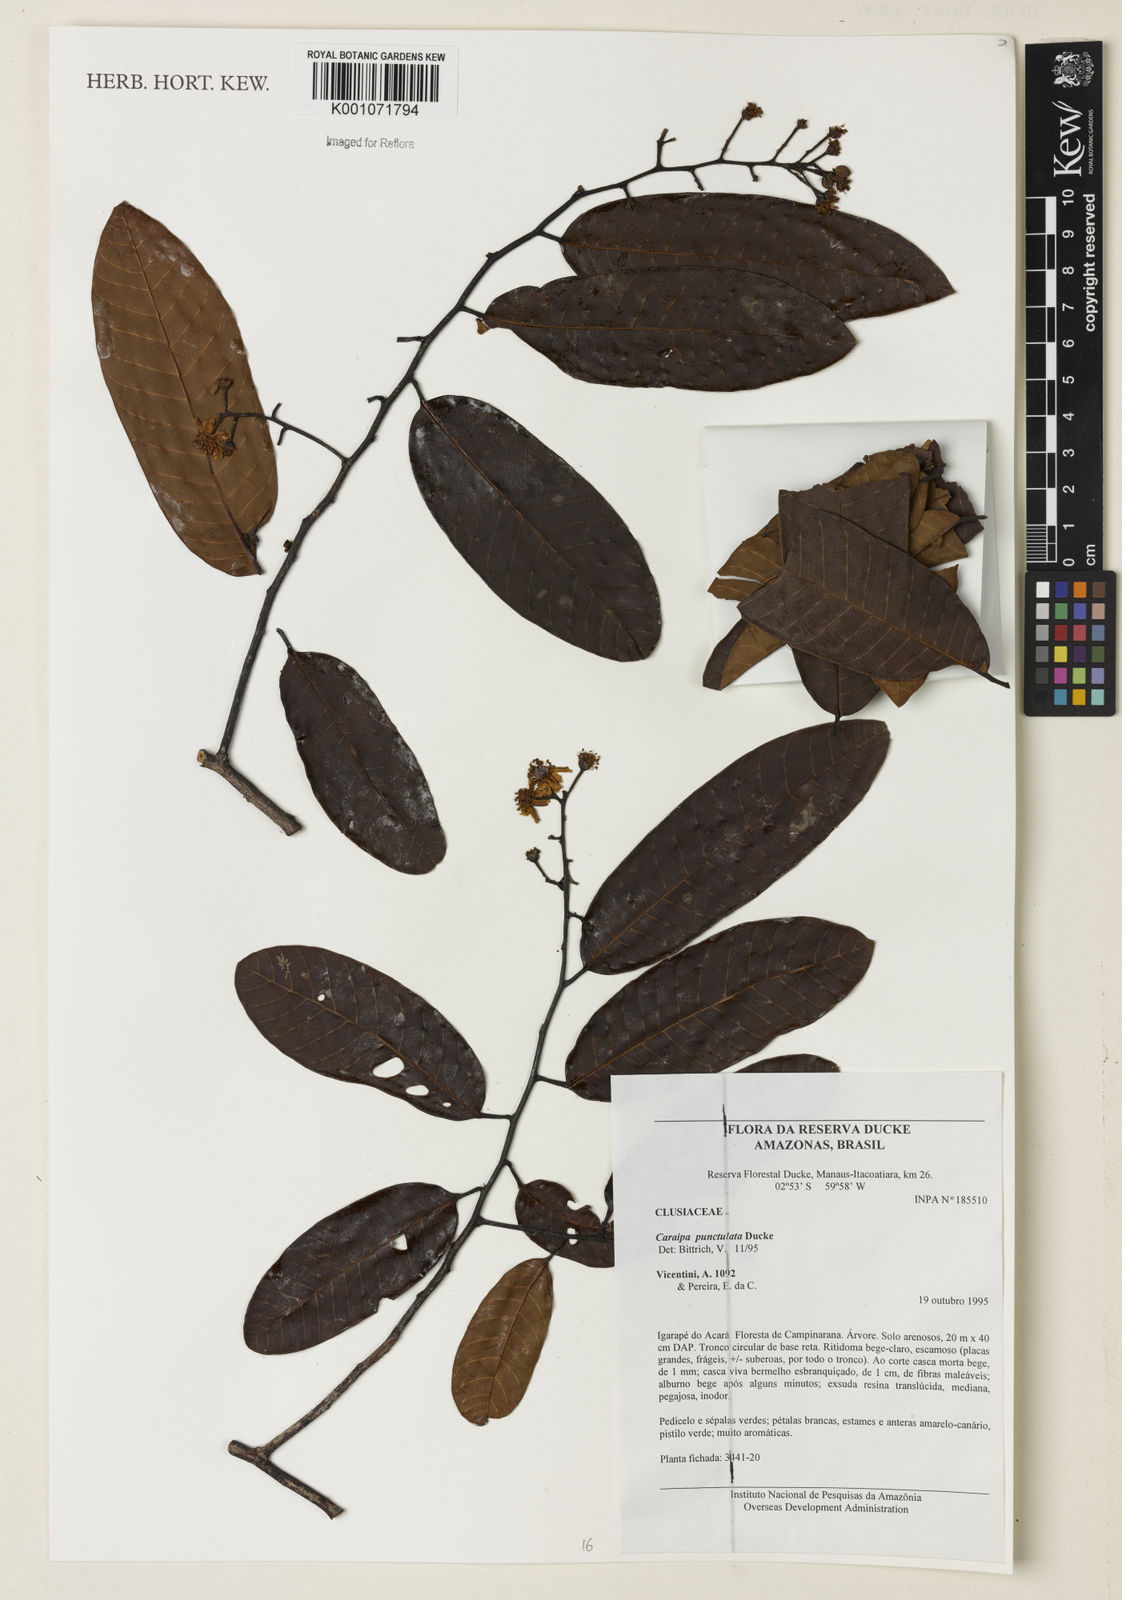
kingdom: Plantae
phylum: Tracheophyta
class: Magnoliopsida
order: Malpighiales
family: Calophyllaceae
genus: Caraipa
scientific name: Caraipa punctulata
